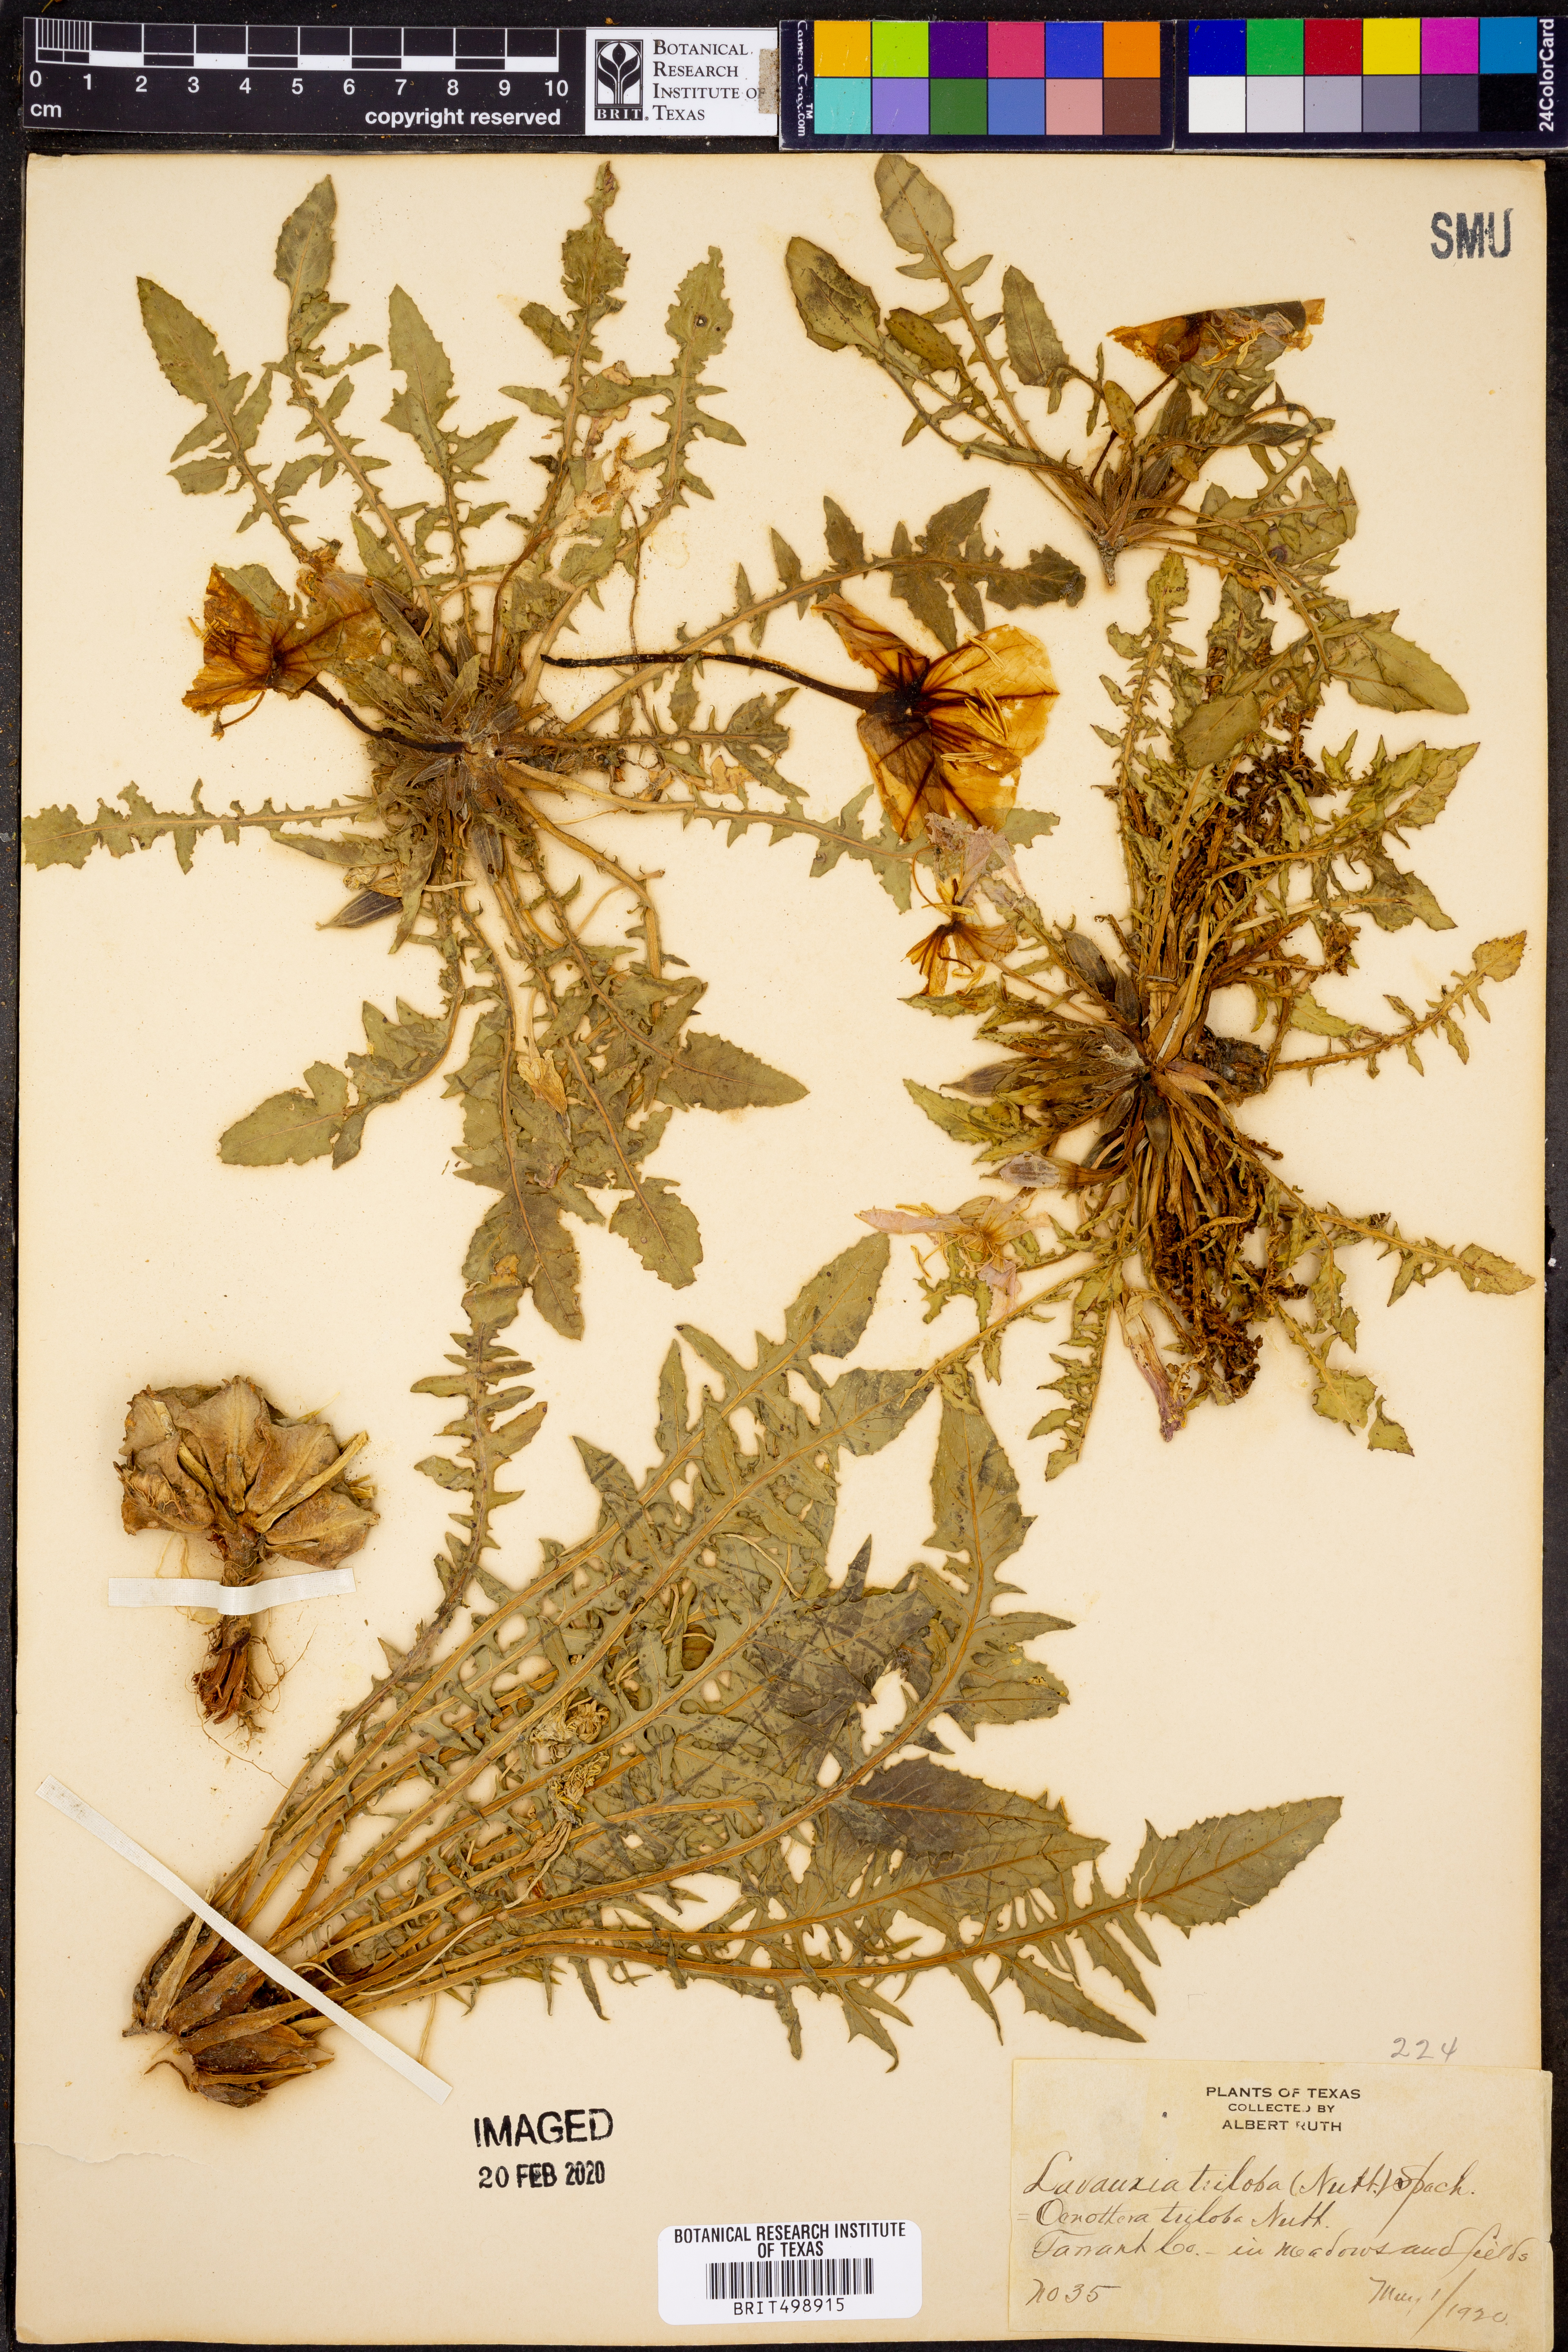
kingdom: Plantae
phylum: Tracheophyta
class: Magnoliopsida
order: Myrtales
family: Onagraceae
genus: Oenothera
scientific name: Oenothera triloba
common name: Sessile evening-primrose
